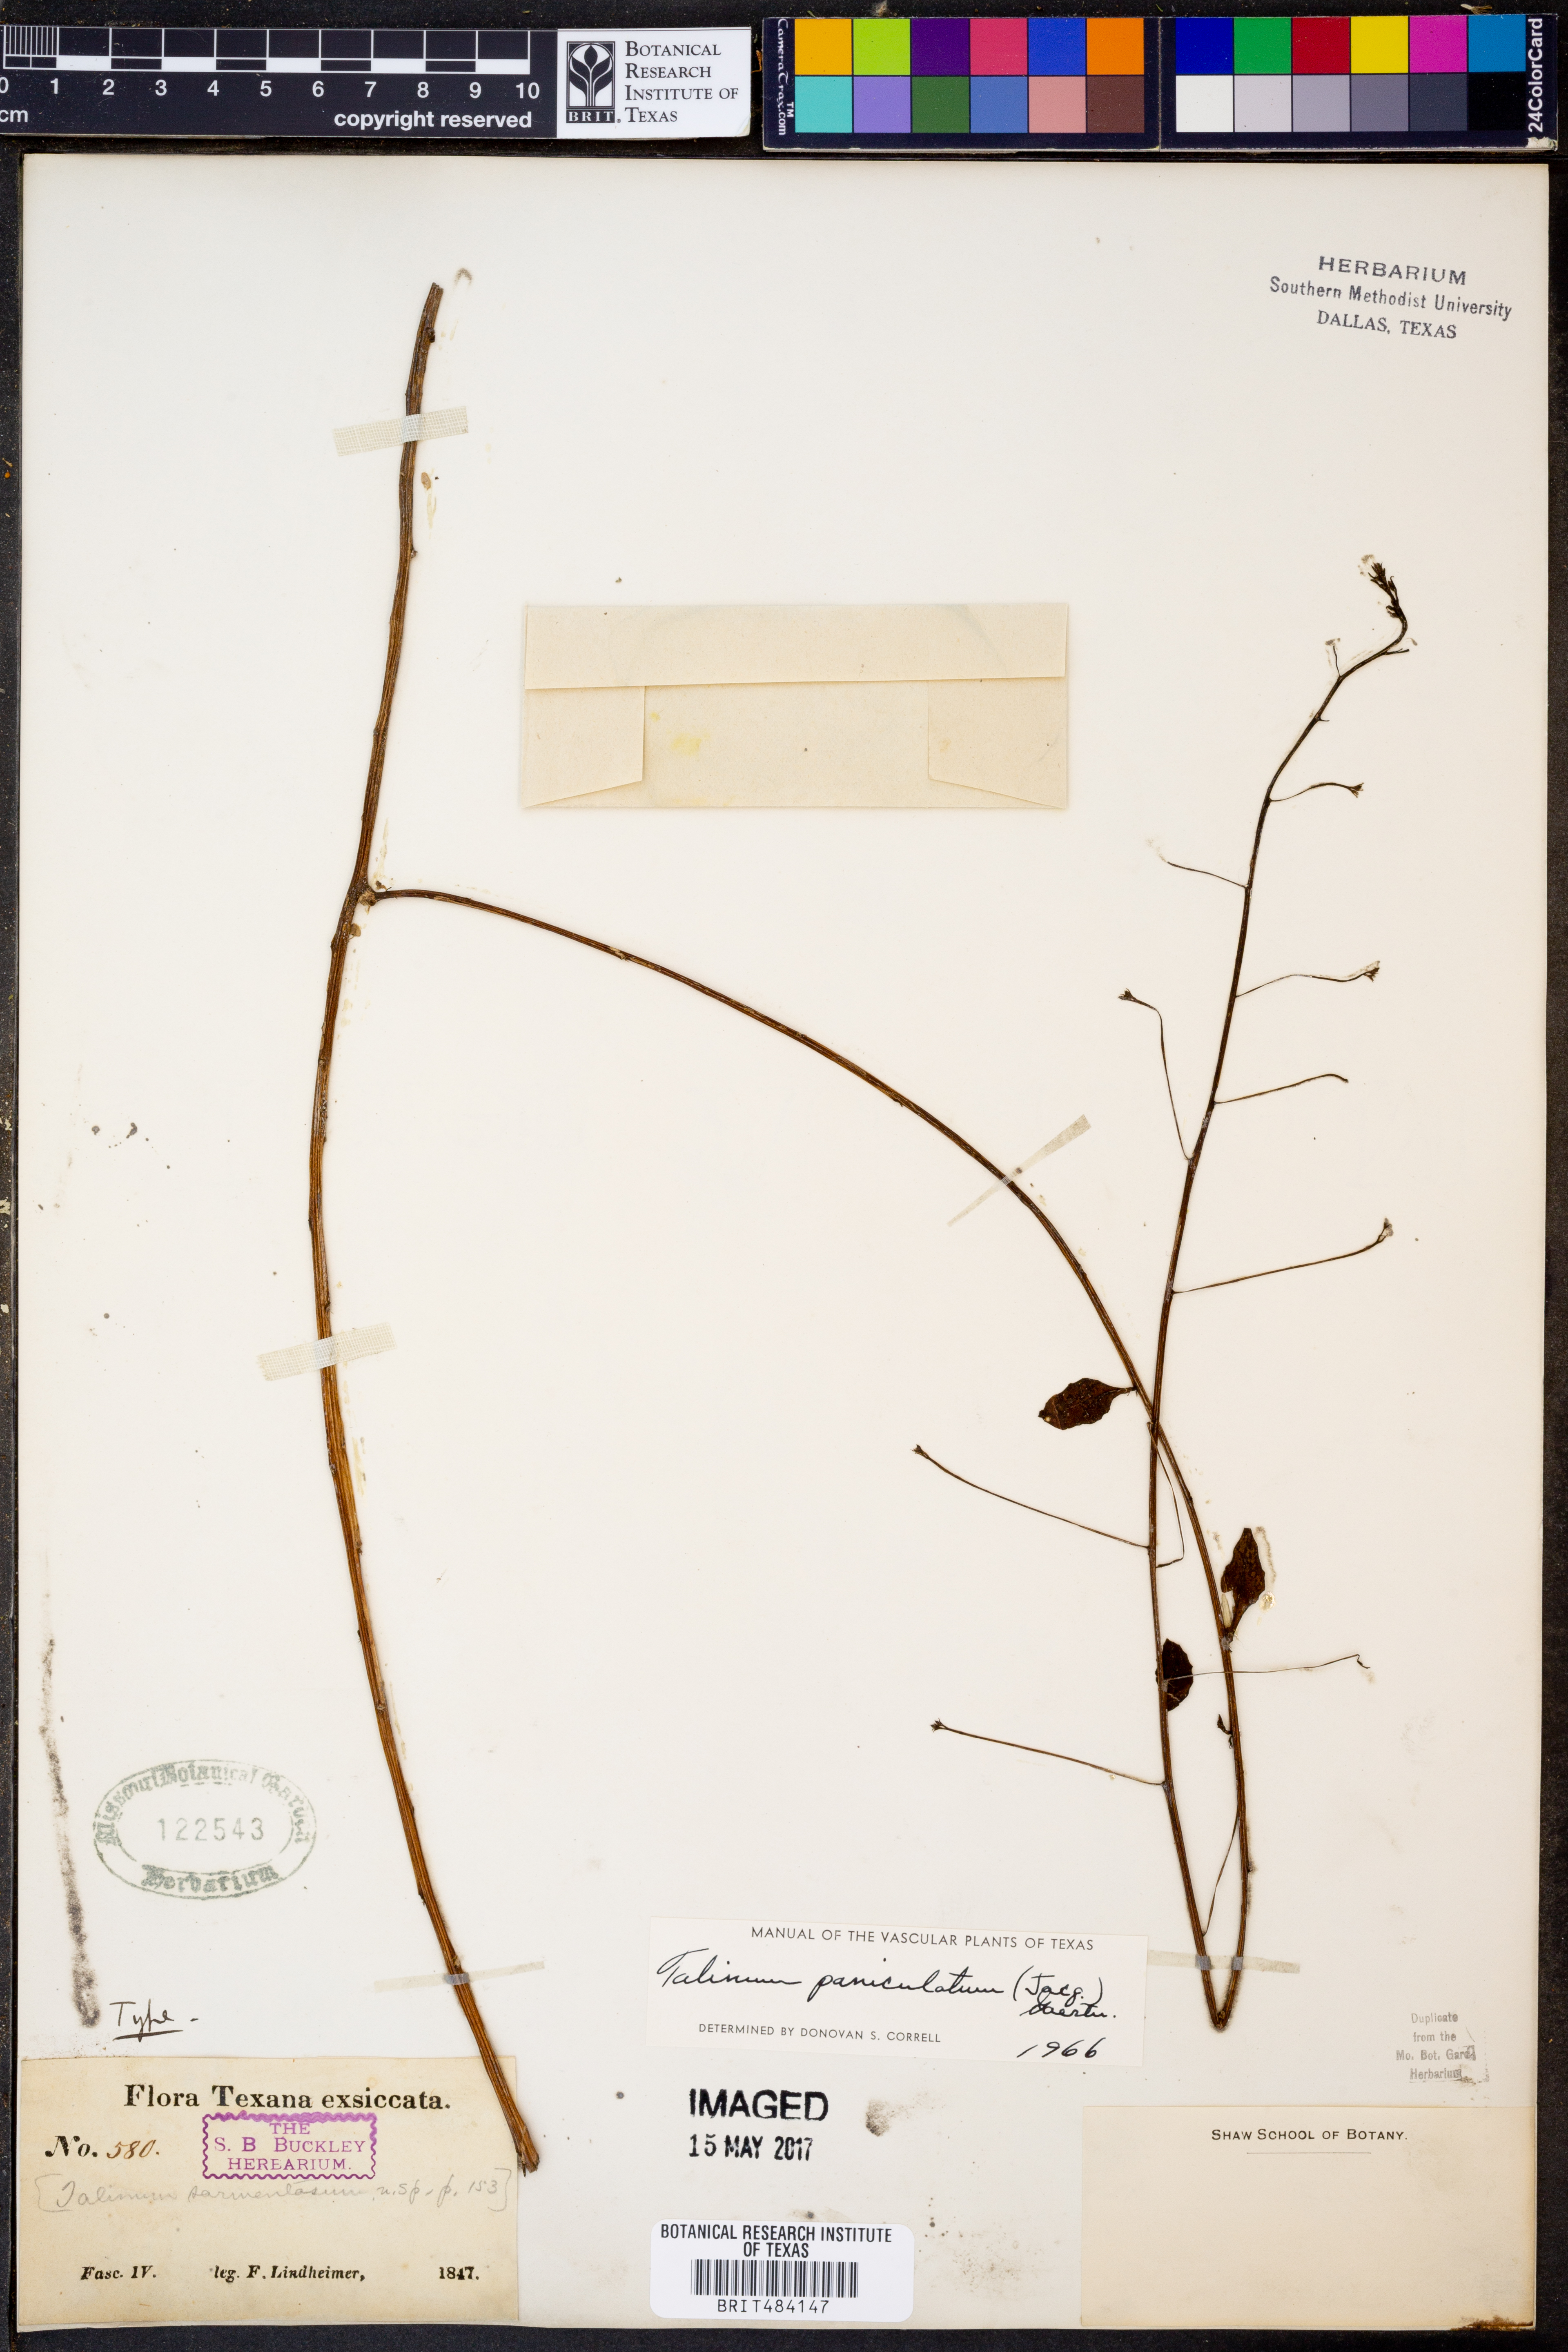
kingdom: Plantae
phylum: Tracheophyta
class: Magnoliopsida
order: Caryophyllales
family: Talinaceae
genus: Talinum
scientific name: Talinum paniculatum
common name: Jewels of opar
